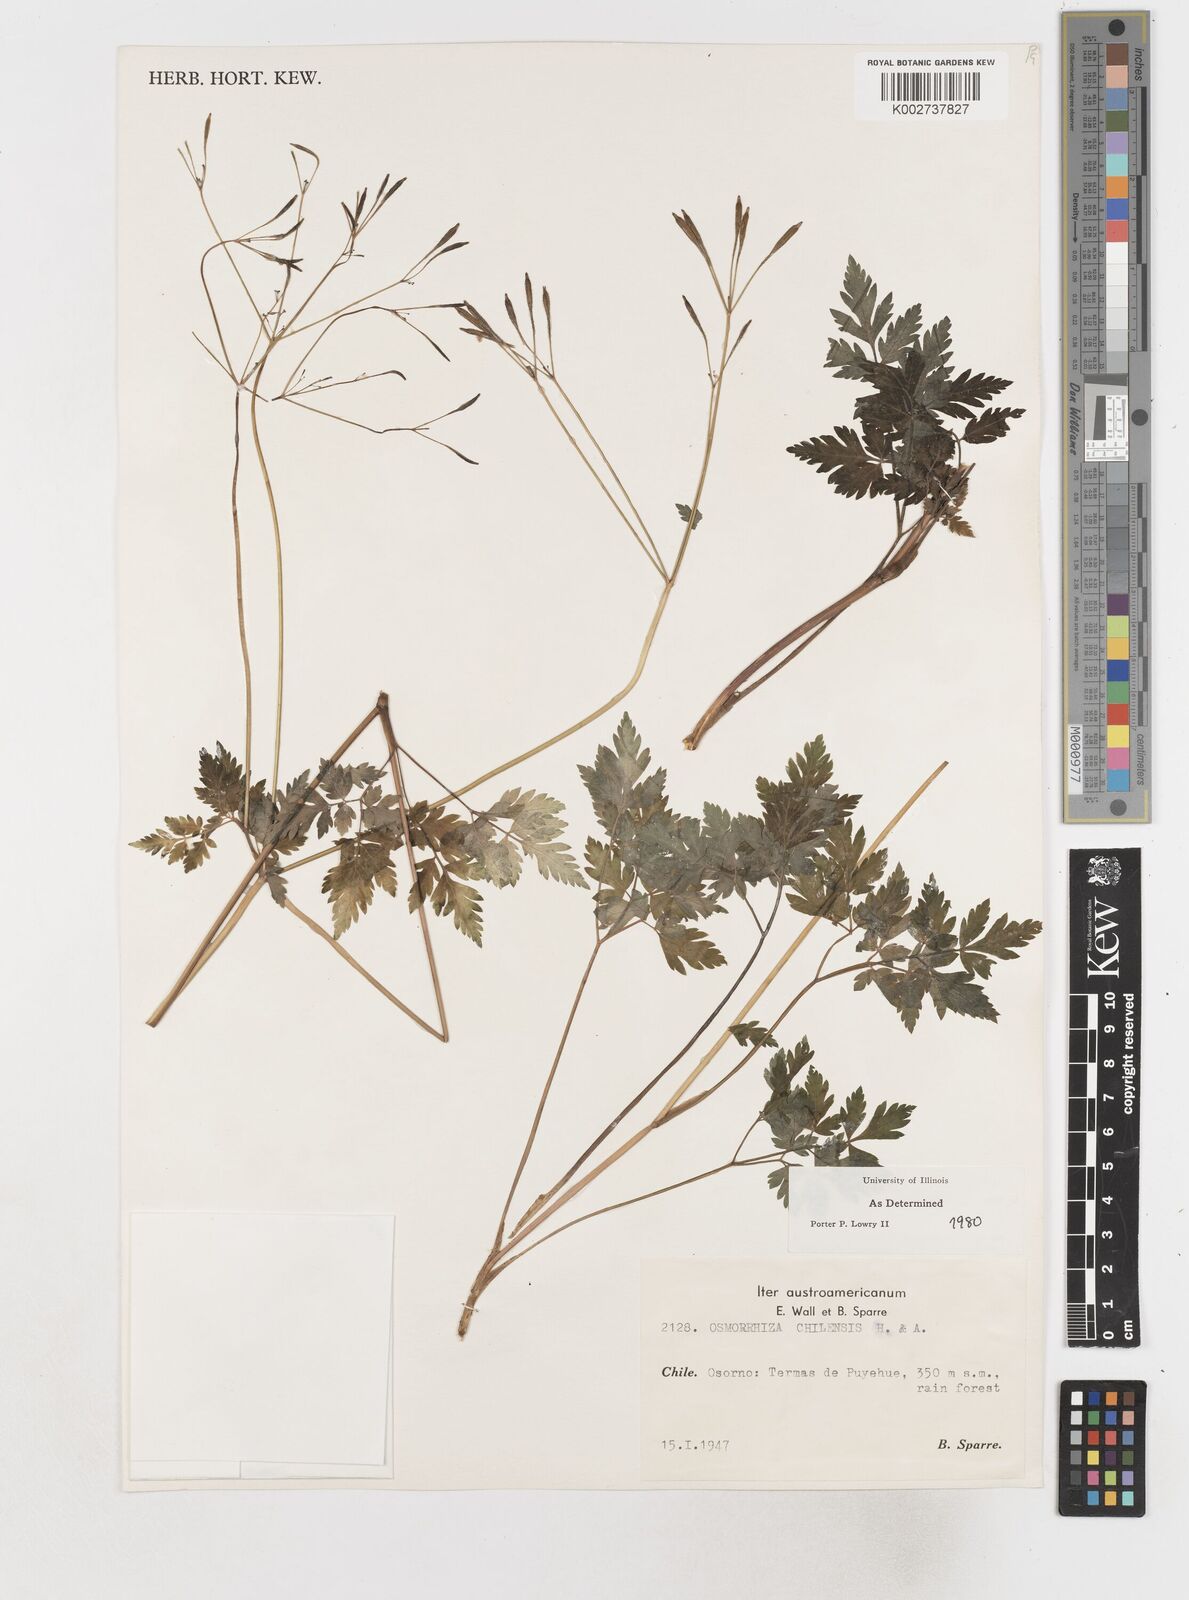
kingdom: Plantae
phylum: Tracheophyta
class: Magnoliopsida
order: Apiales
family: Apiaceae
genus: Osmorhiza
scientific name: Osmorhiza berteroi
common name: Mountain sweet cicely
